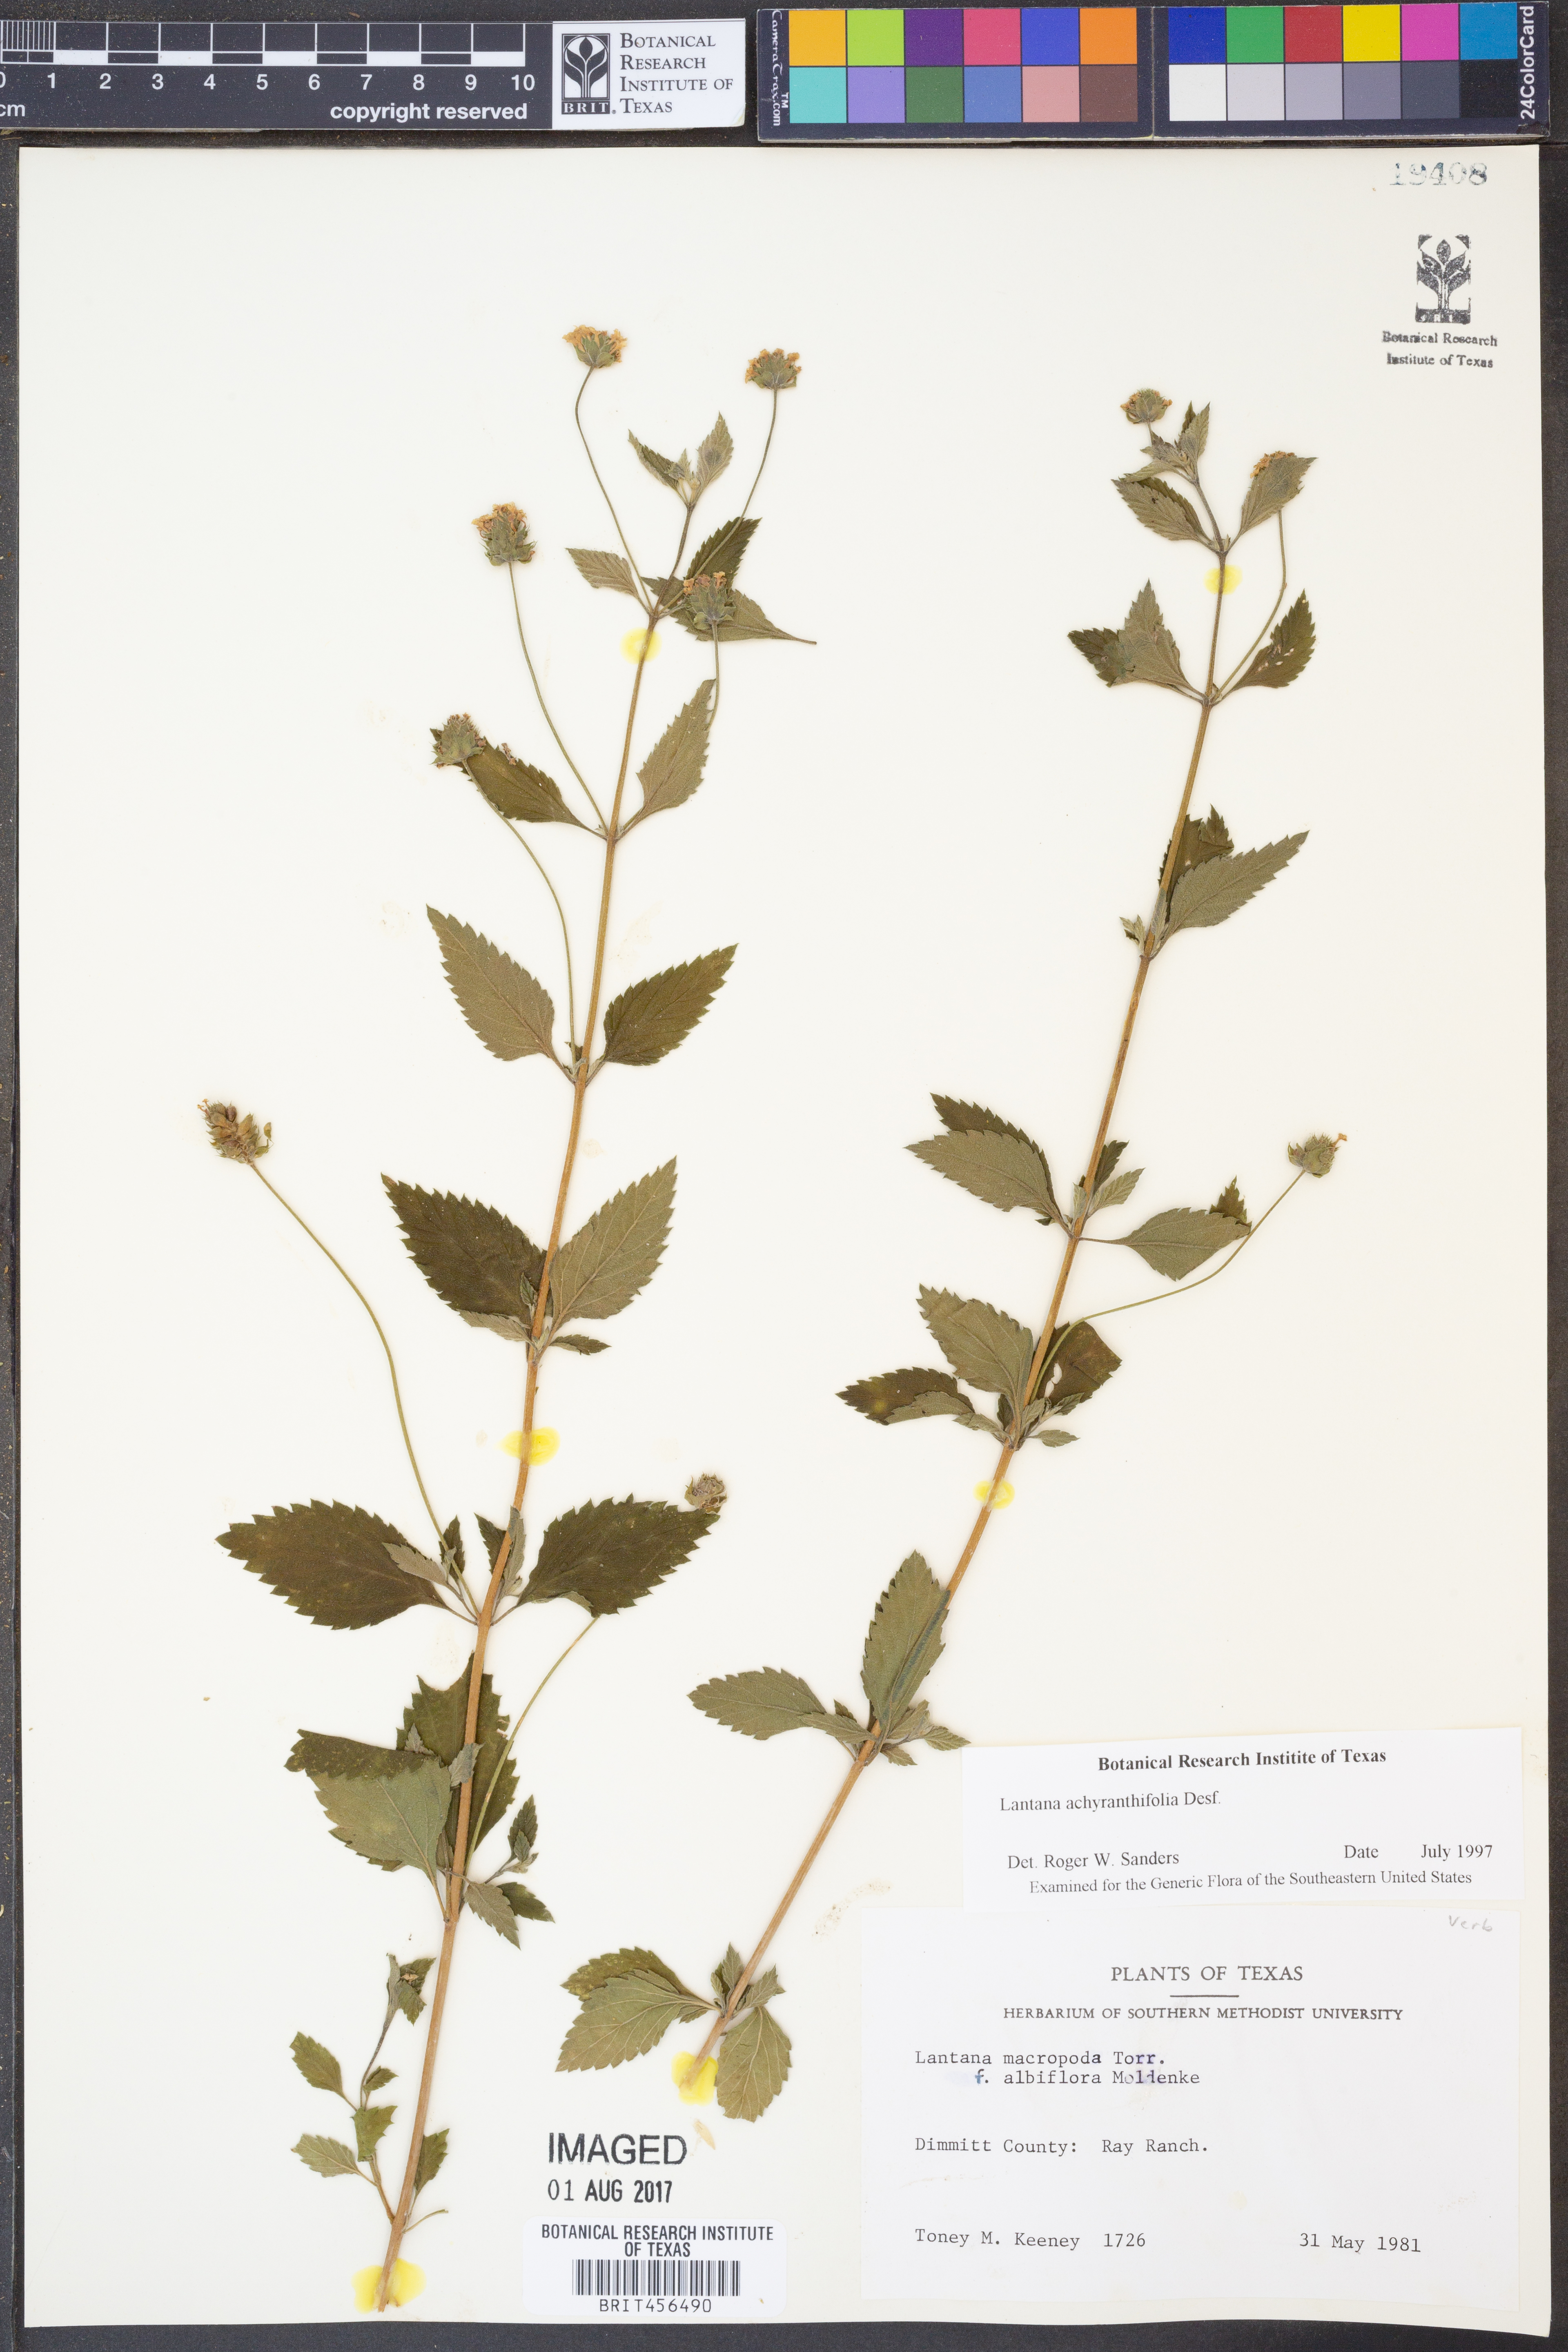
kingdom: Plantae
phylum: Tracheophyta
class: Magnoliopsida
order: Lamiales
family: Verbenaceae
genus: Lantana
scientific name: Lantana achyranthifolia
